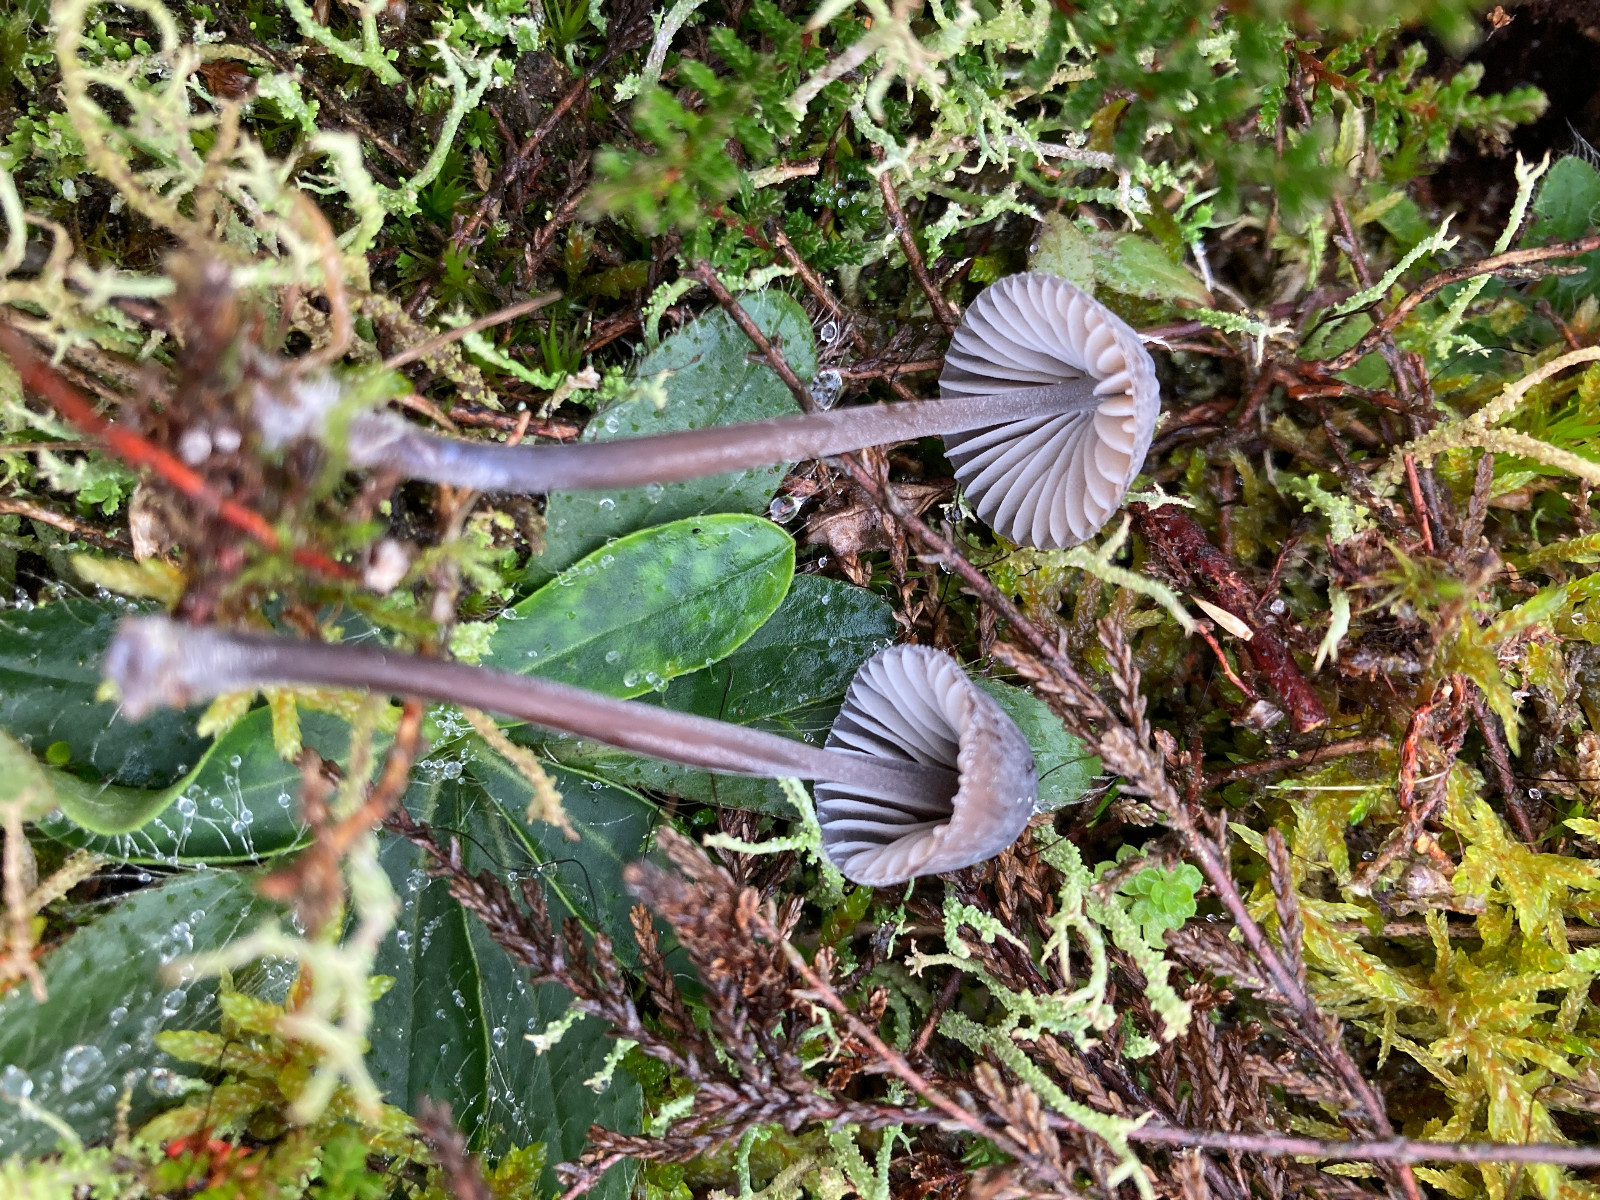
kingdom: Fungi
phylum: Basidiomycota
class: Agaricomycetes
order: Agaricales
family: Mycenaceae
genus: Mycena
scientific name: Mycena galopus
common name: hvidmælket huesvamp
